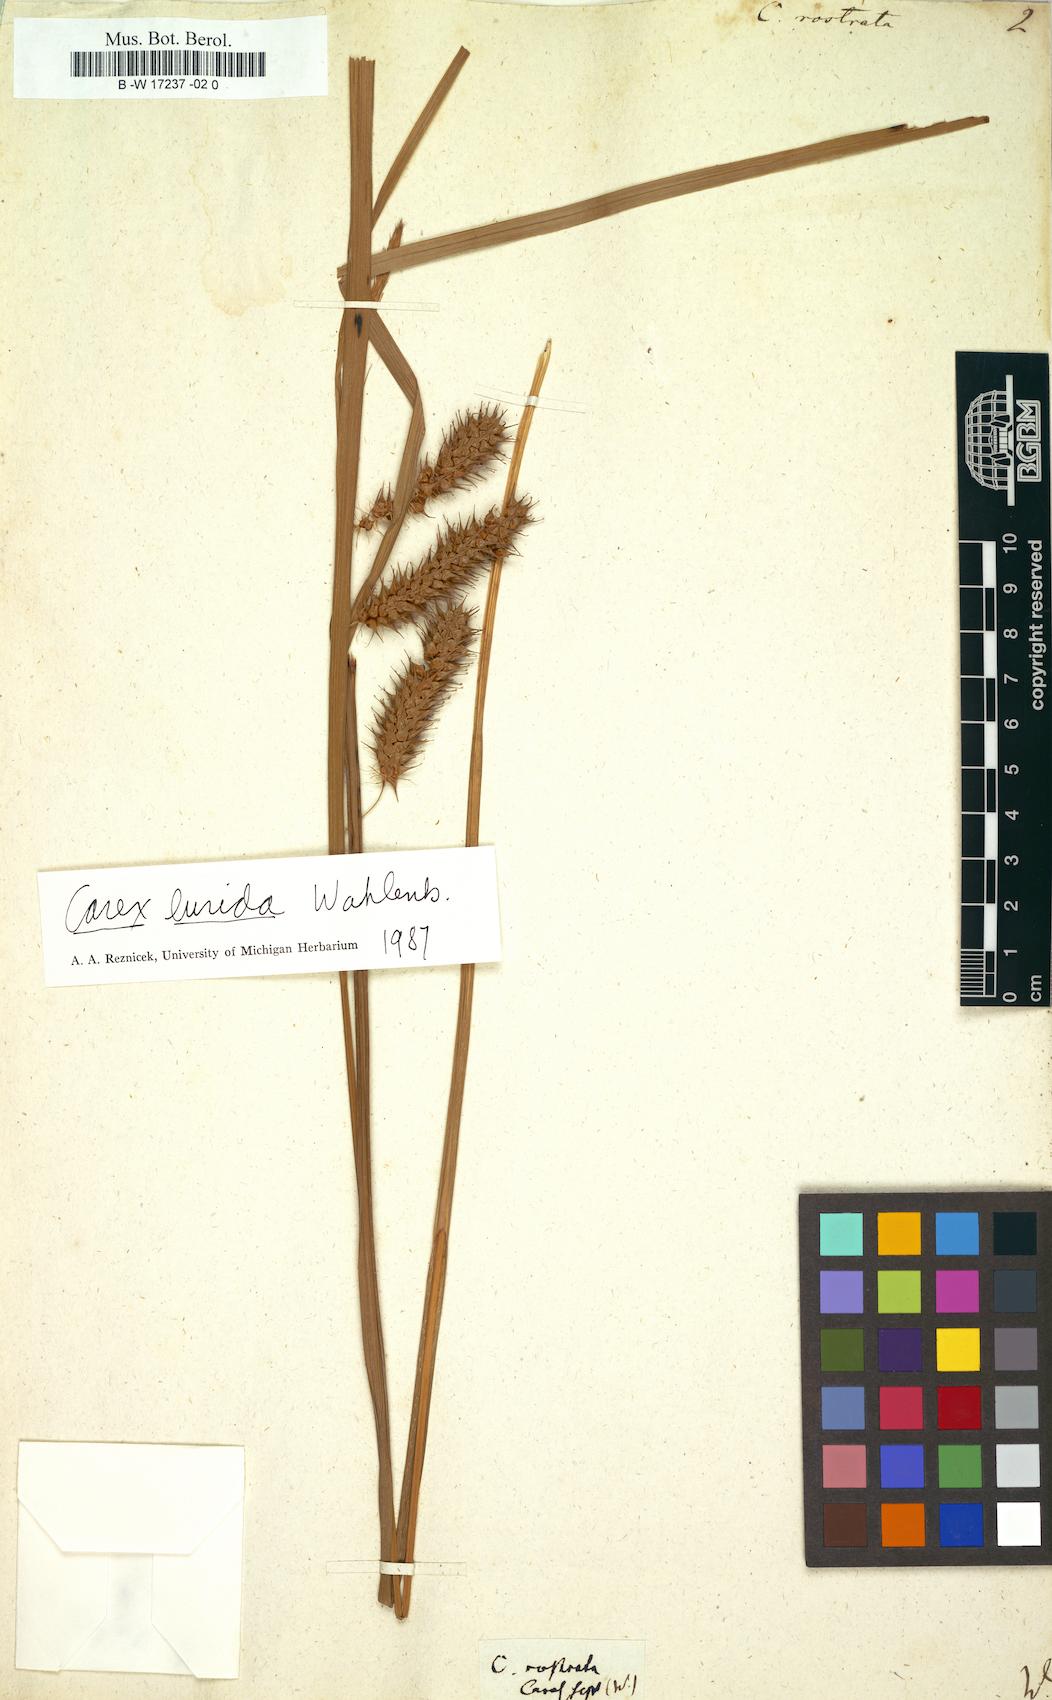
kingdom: Plantae
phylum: Tracheophyta
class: Liliopsida
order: Poales
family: Cyperaceae
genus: Carex
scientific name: Carex michelii
